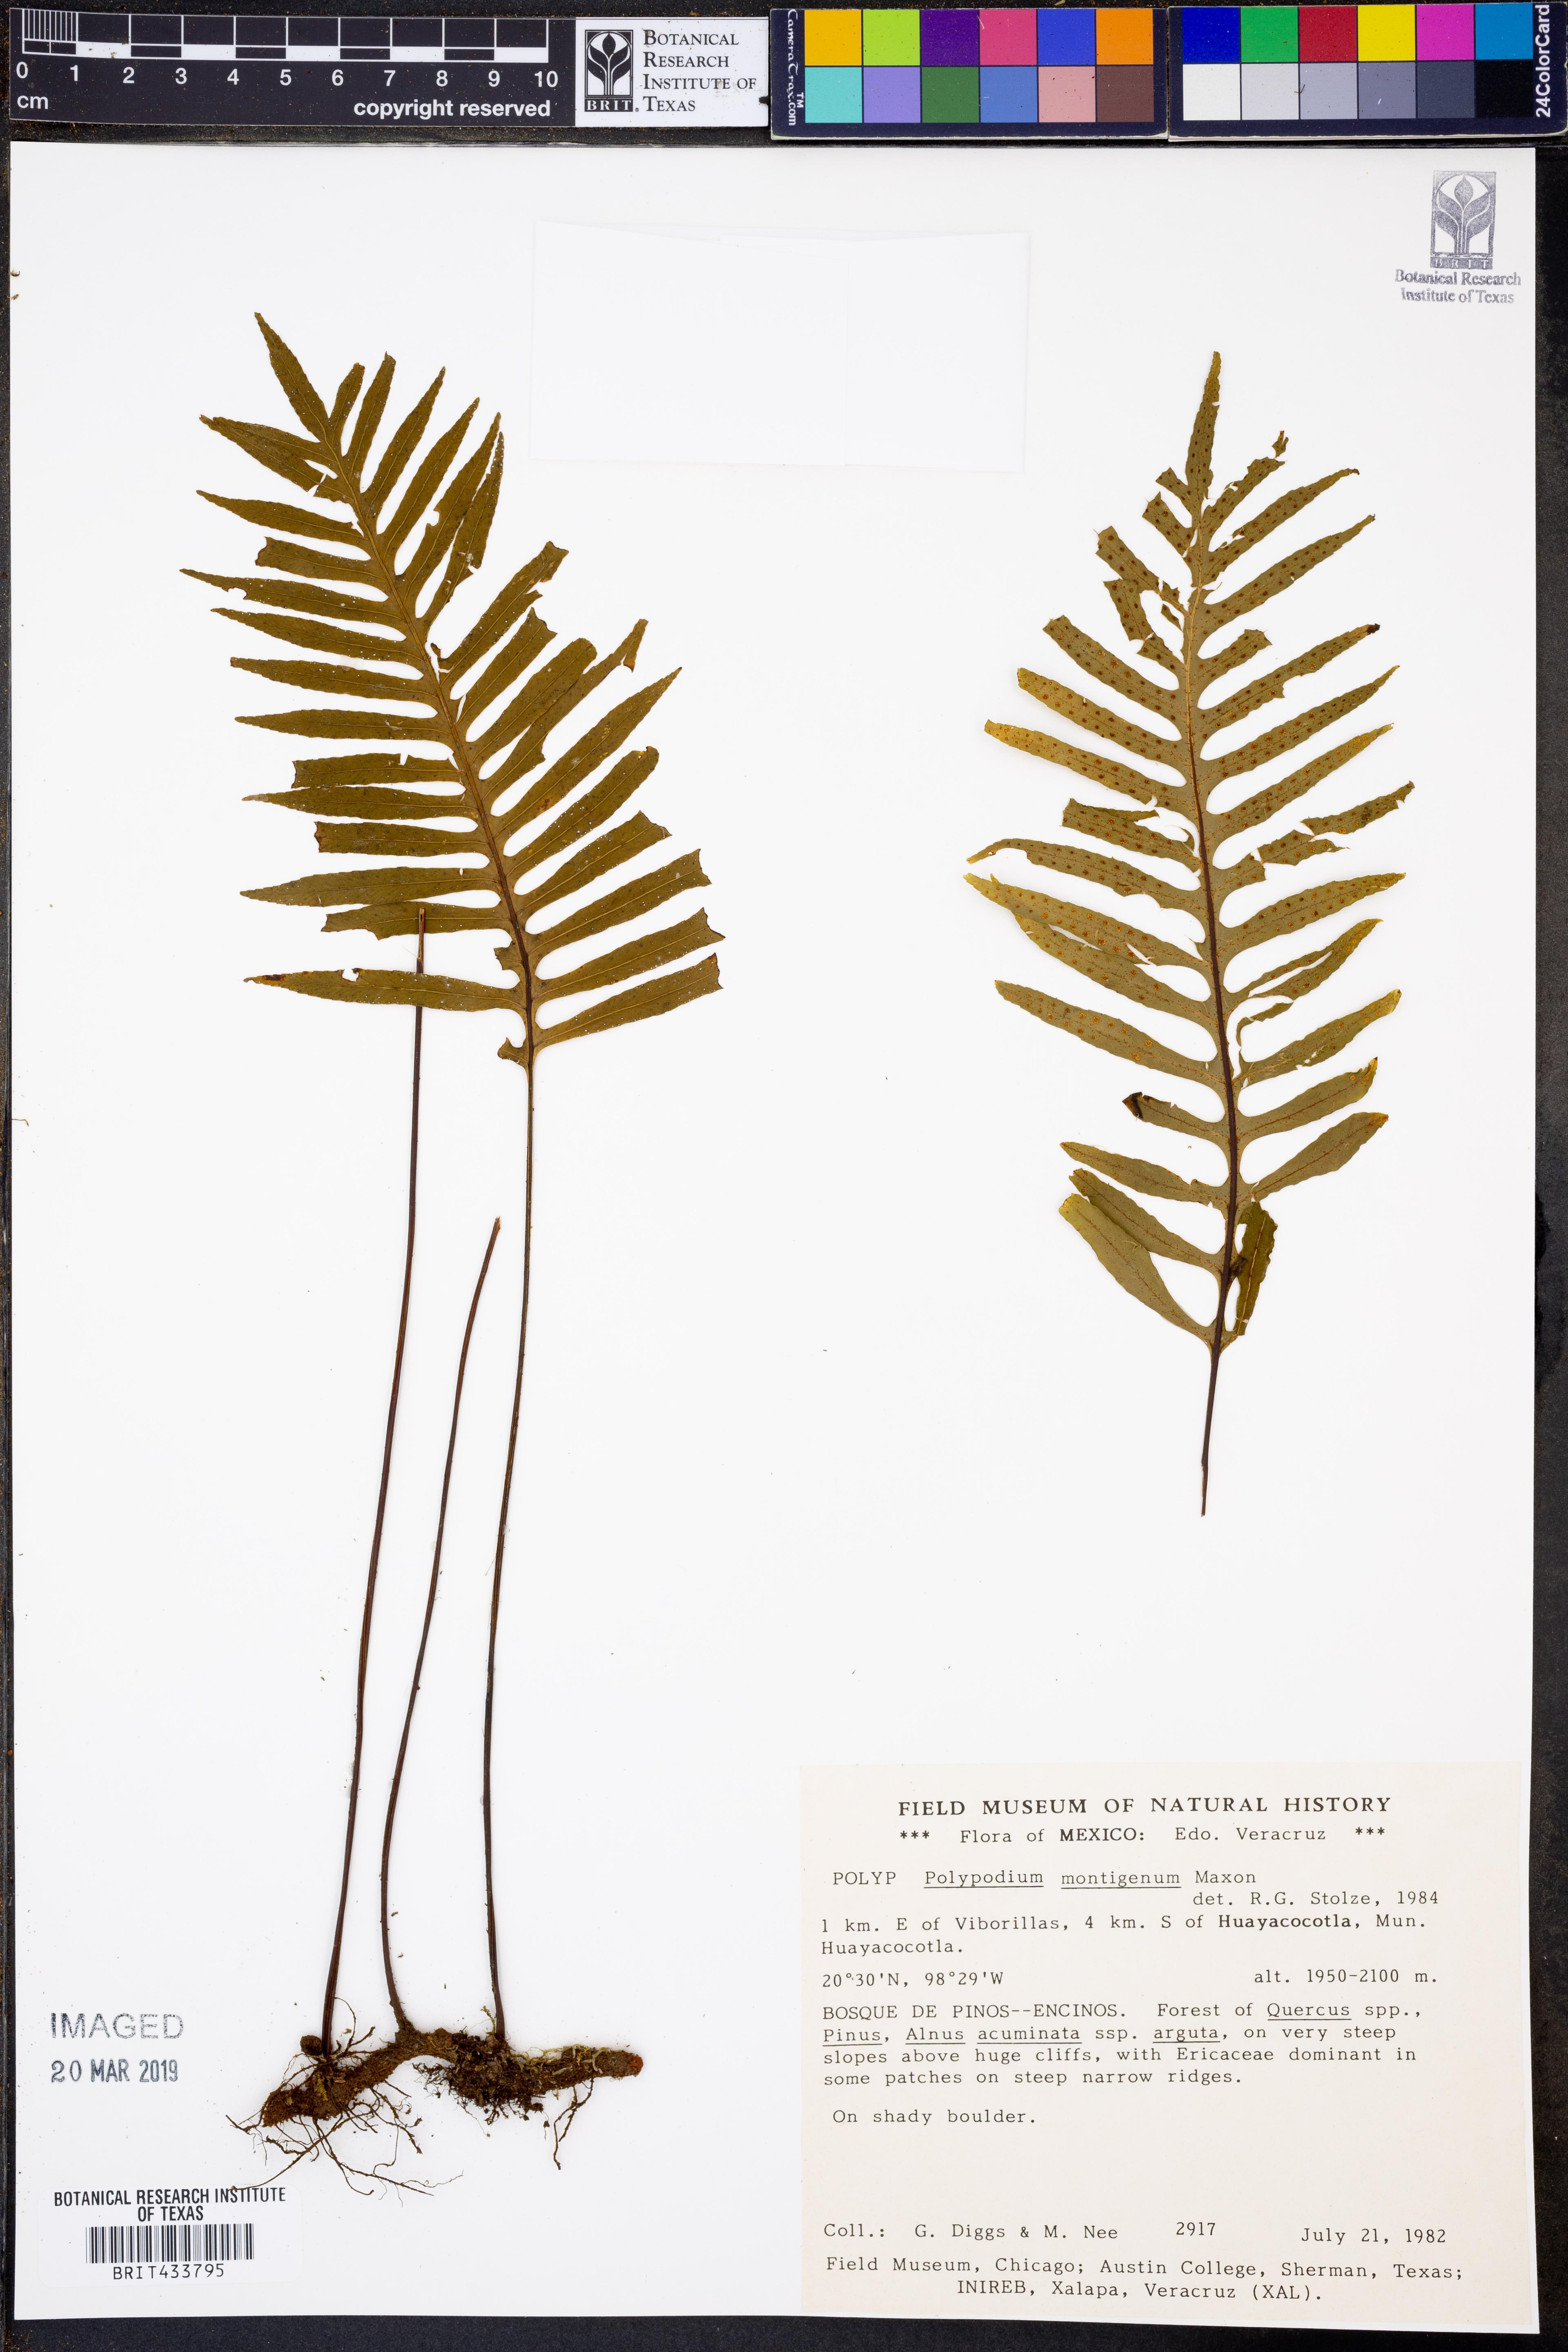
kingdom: Plantae
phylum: Tracheophyta
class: Polypodiopsida
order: Polypodiales
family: Polypodiaceae
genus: Pleopeltis
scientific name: Pleopeltis montigena
